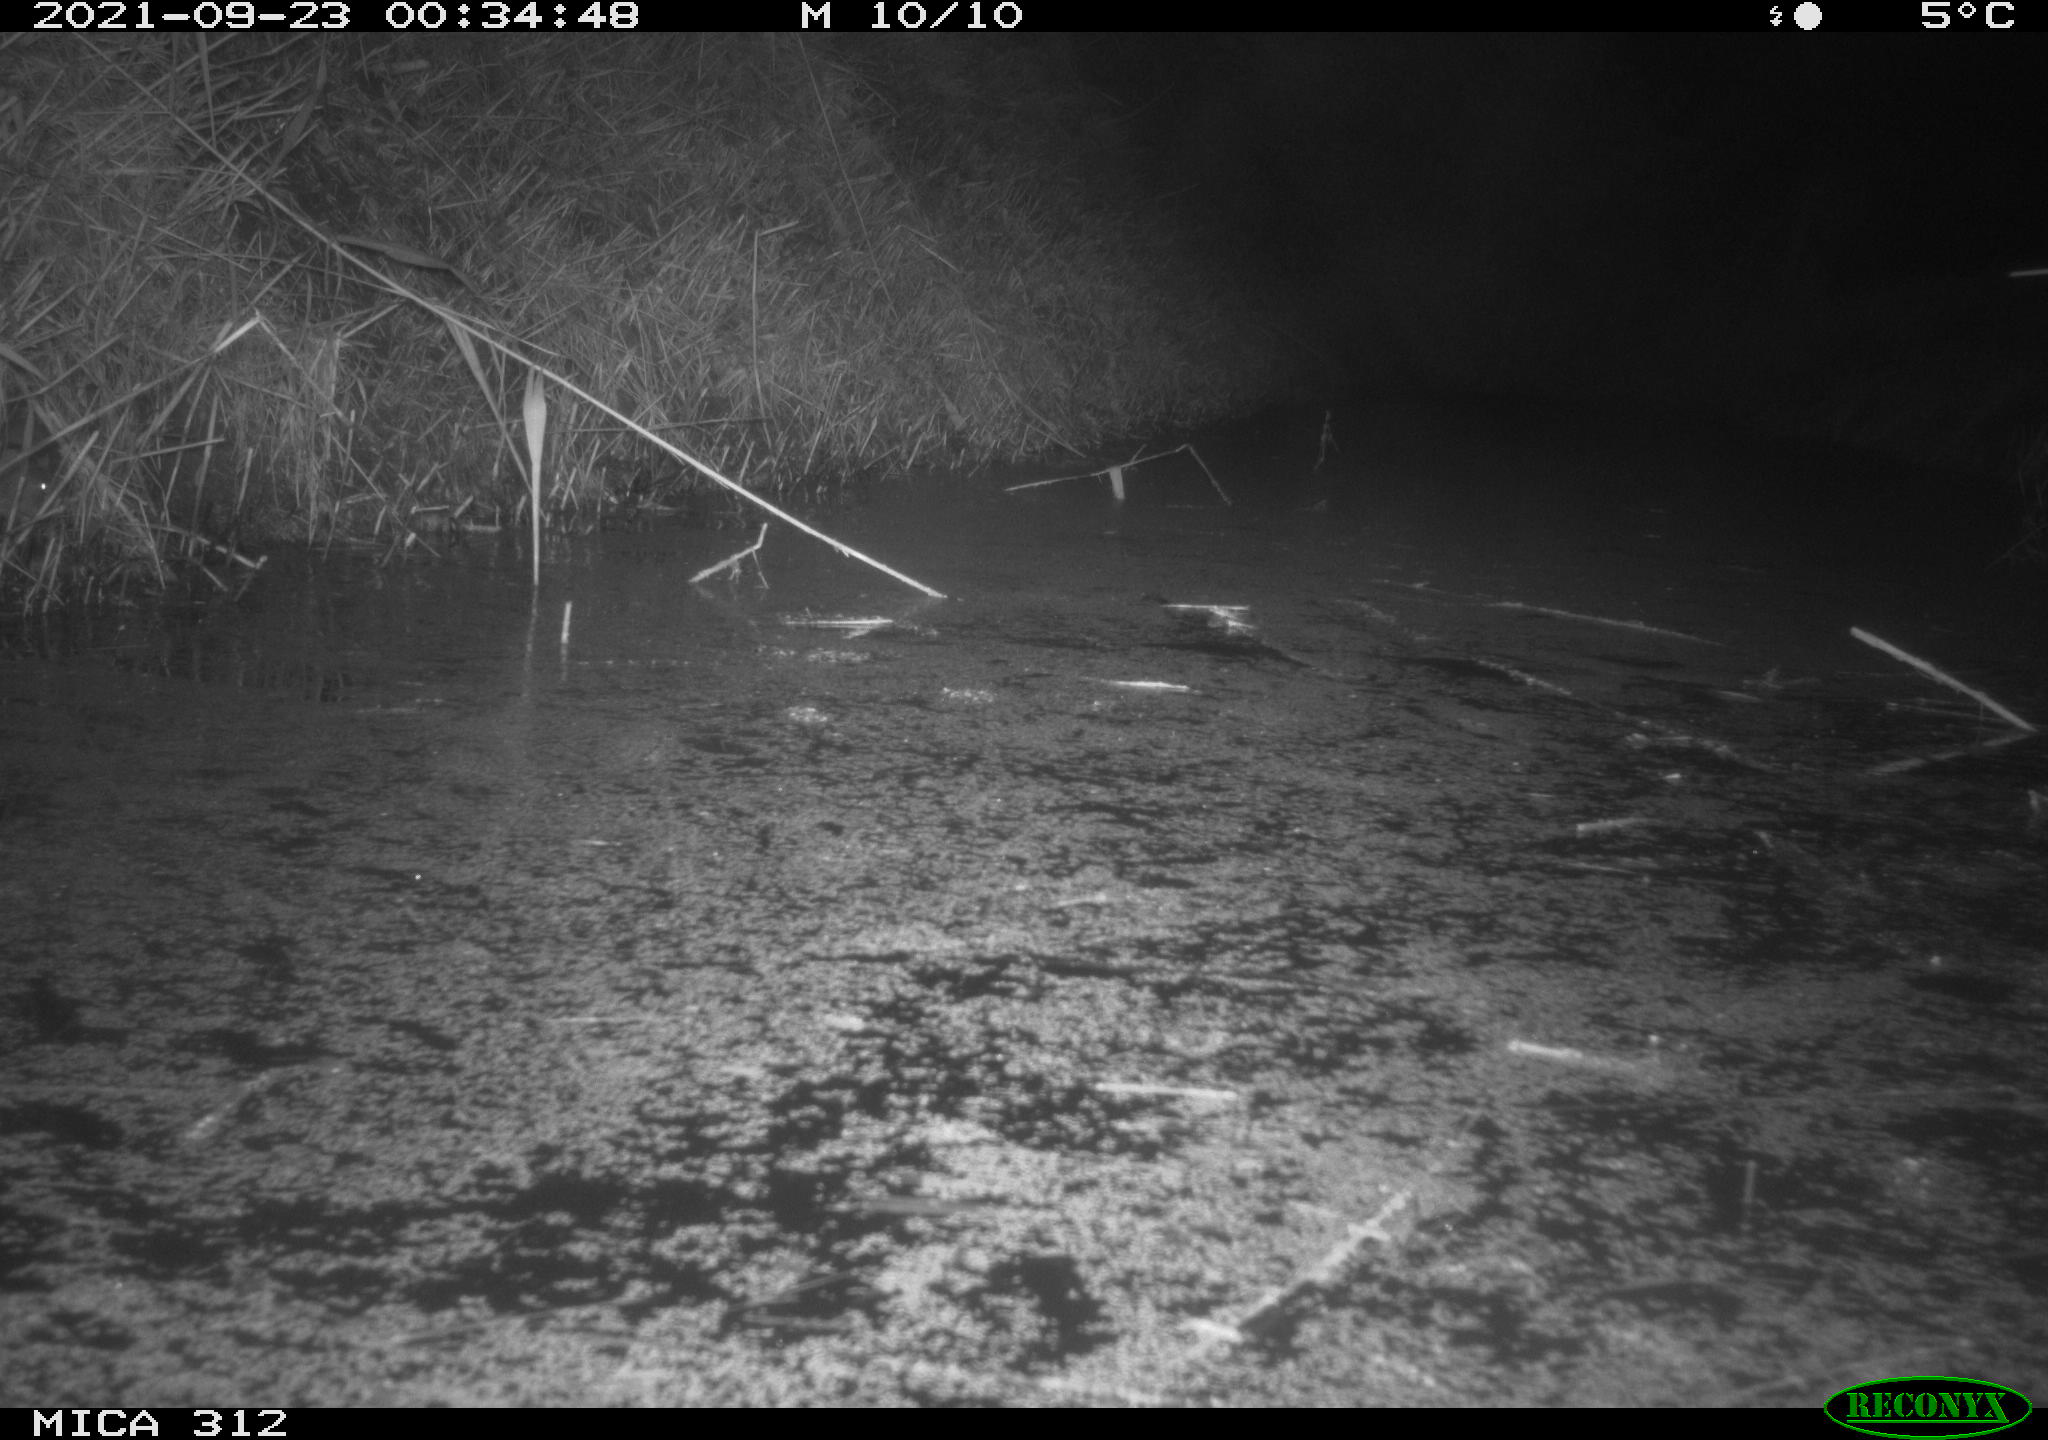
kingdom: Animalia
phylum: Chordata
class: Mammalia
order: Rodentia
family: Muridae
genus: Rattus
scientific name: Rattus norvegicus
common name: Brown rat
